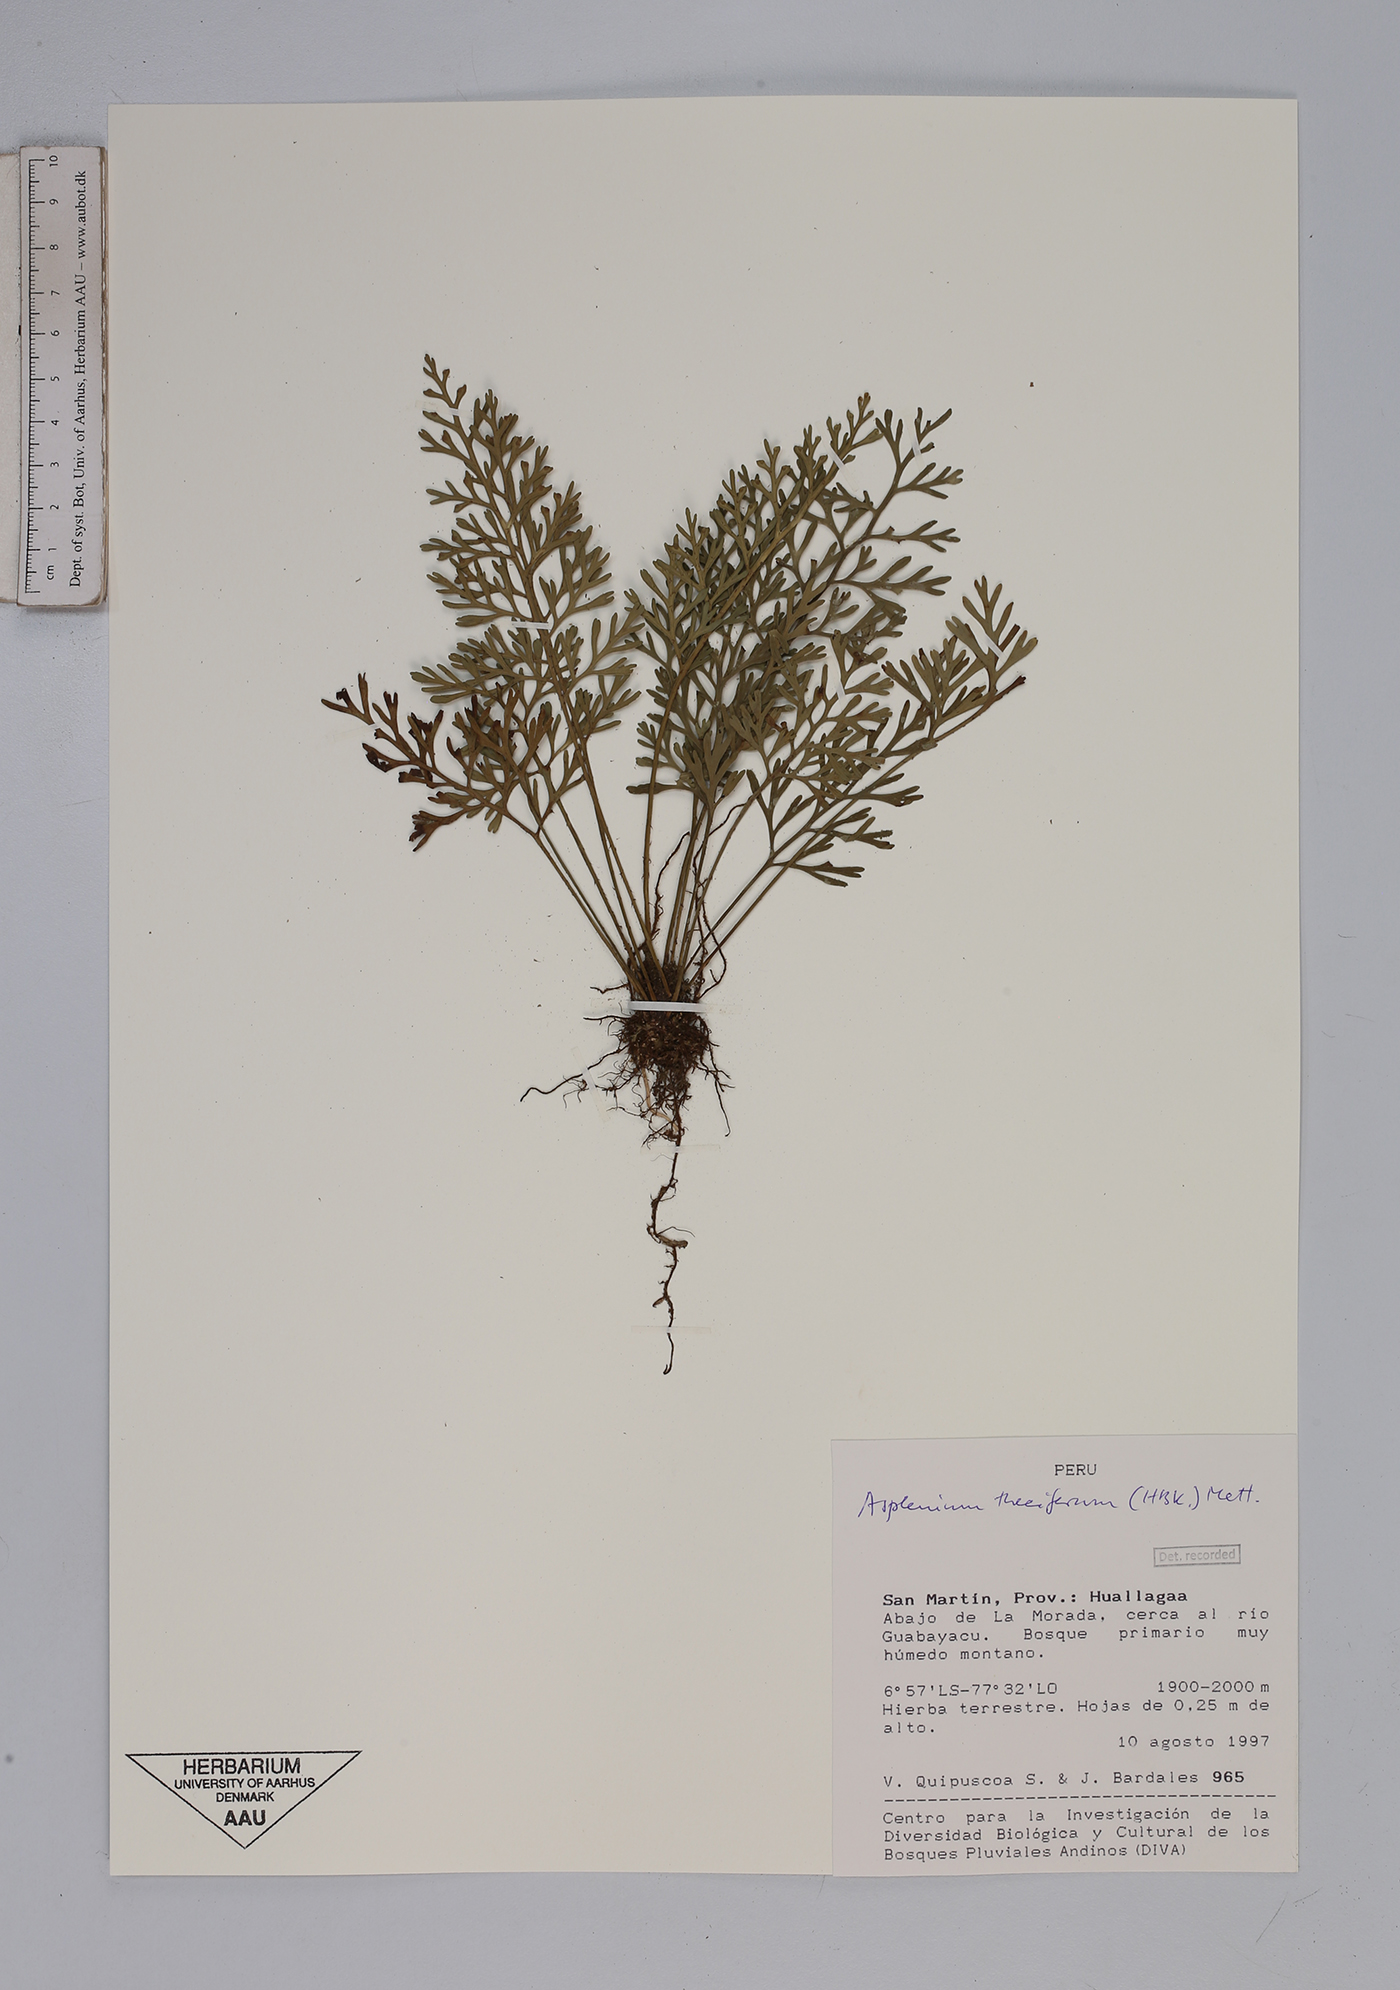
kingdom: Plantae
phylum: Tracheophyta
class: Polypodiopsida
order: Polypodiales
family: Aspleniaceae
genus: Asplenium
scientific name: Asplenium theciferum
